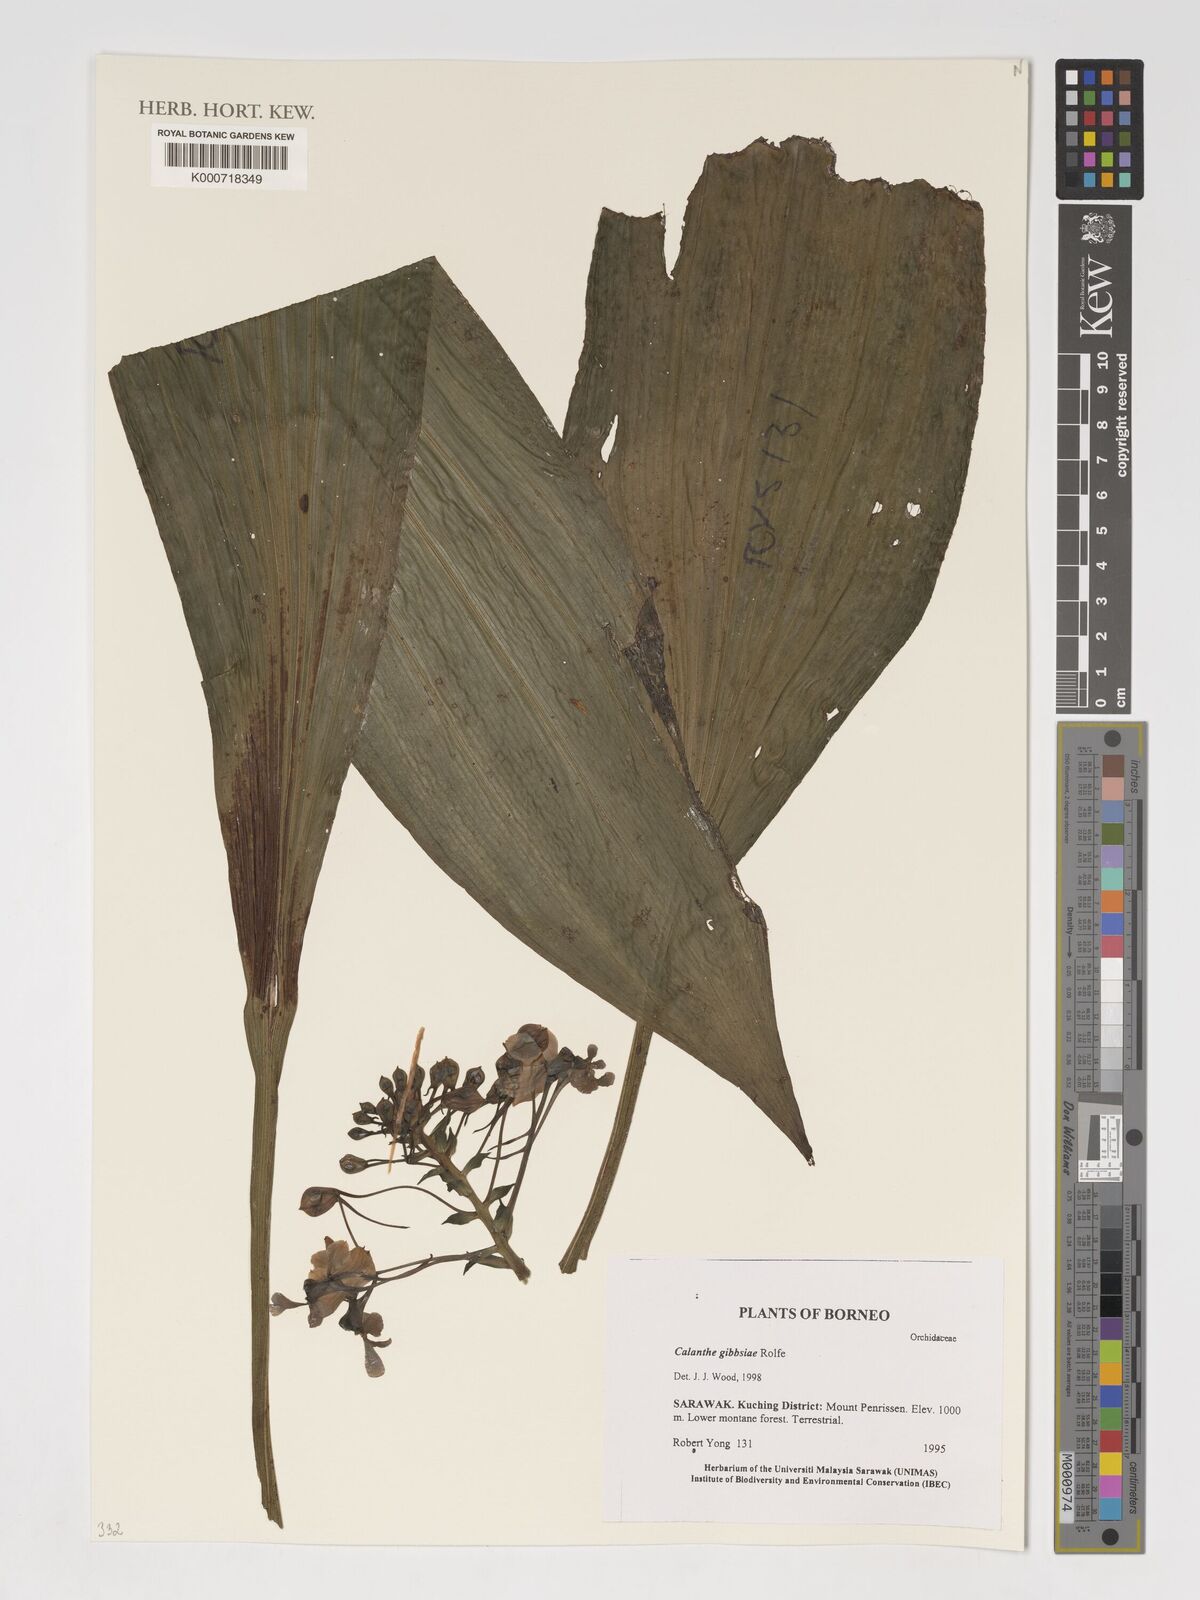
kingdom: Plantae
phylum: Tracheophyta
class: Liliopsida
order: Asparagales
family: Orchidaceae
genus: Calanthe
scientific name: Calanthe gibbsiae
